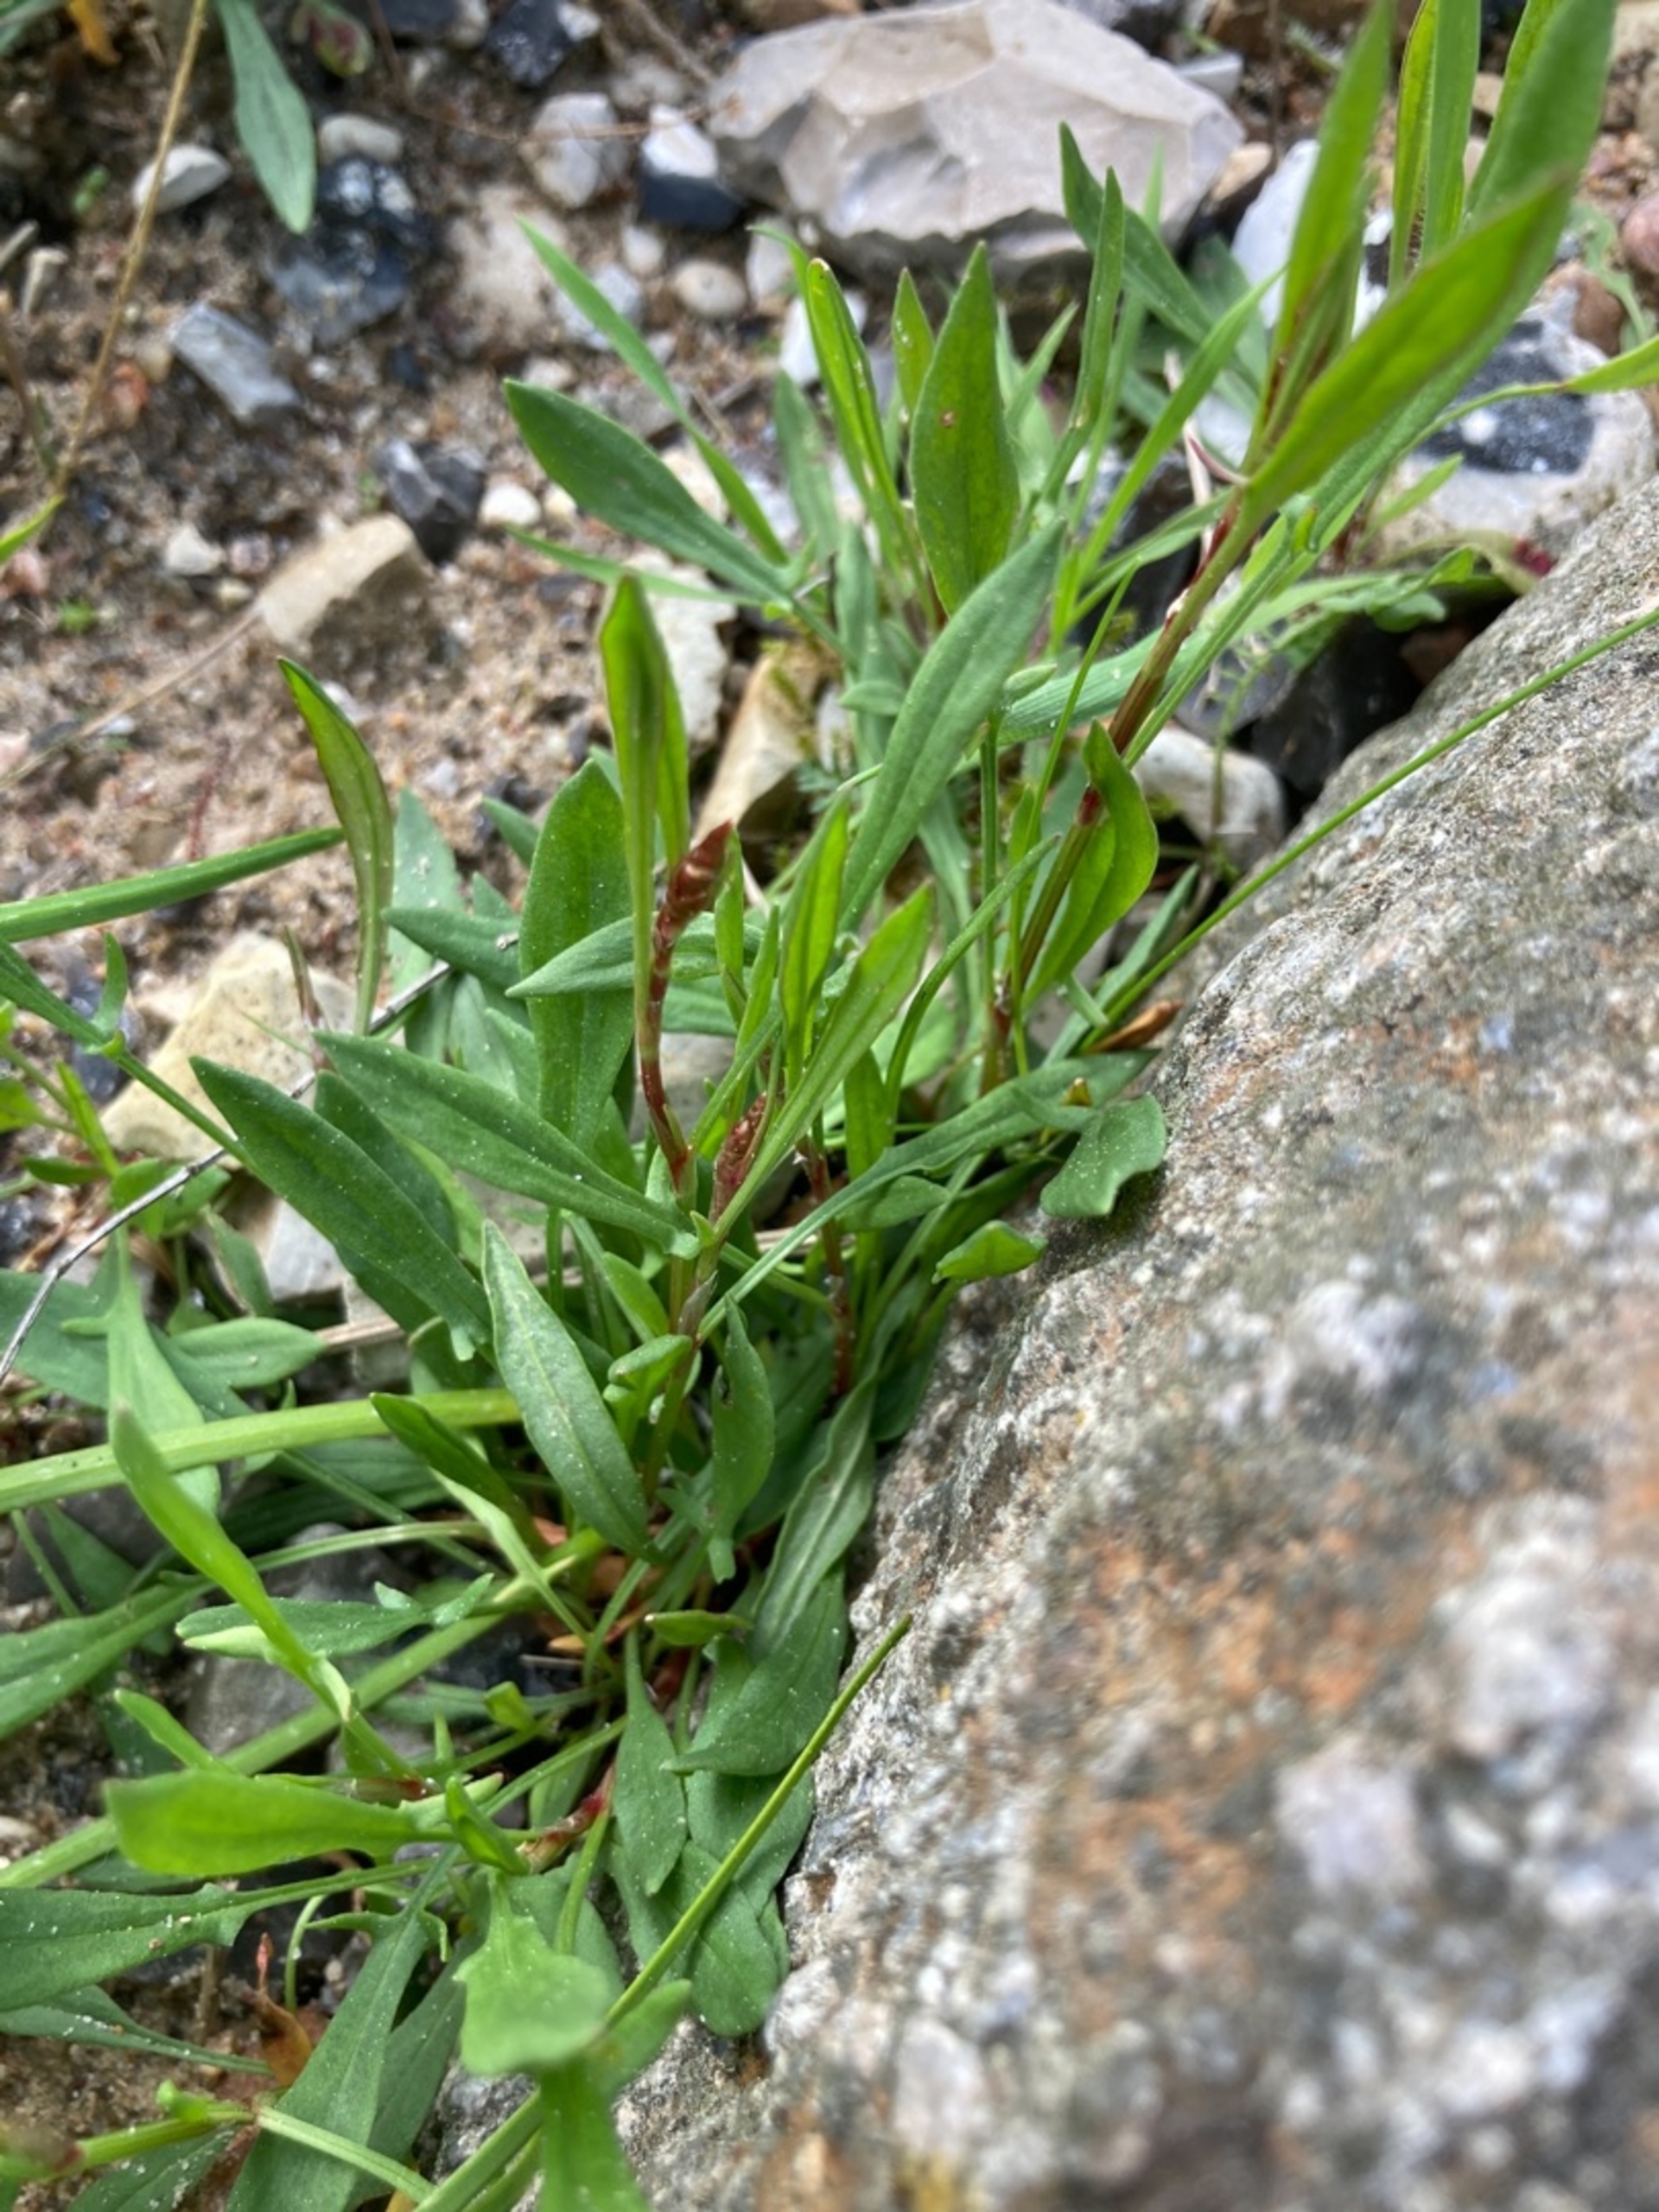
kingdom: Plantae
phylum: Tracheophyta
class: Magnoliopsida
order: Caryophyllales
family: Polygonaceae
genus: Rumex
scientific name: Rumex acetosella
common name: Rødknæ
